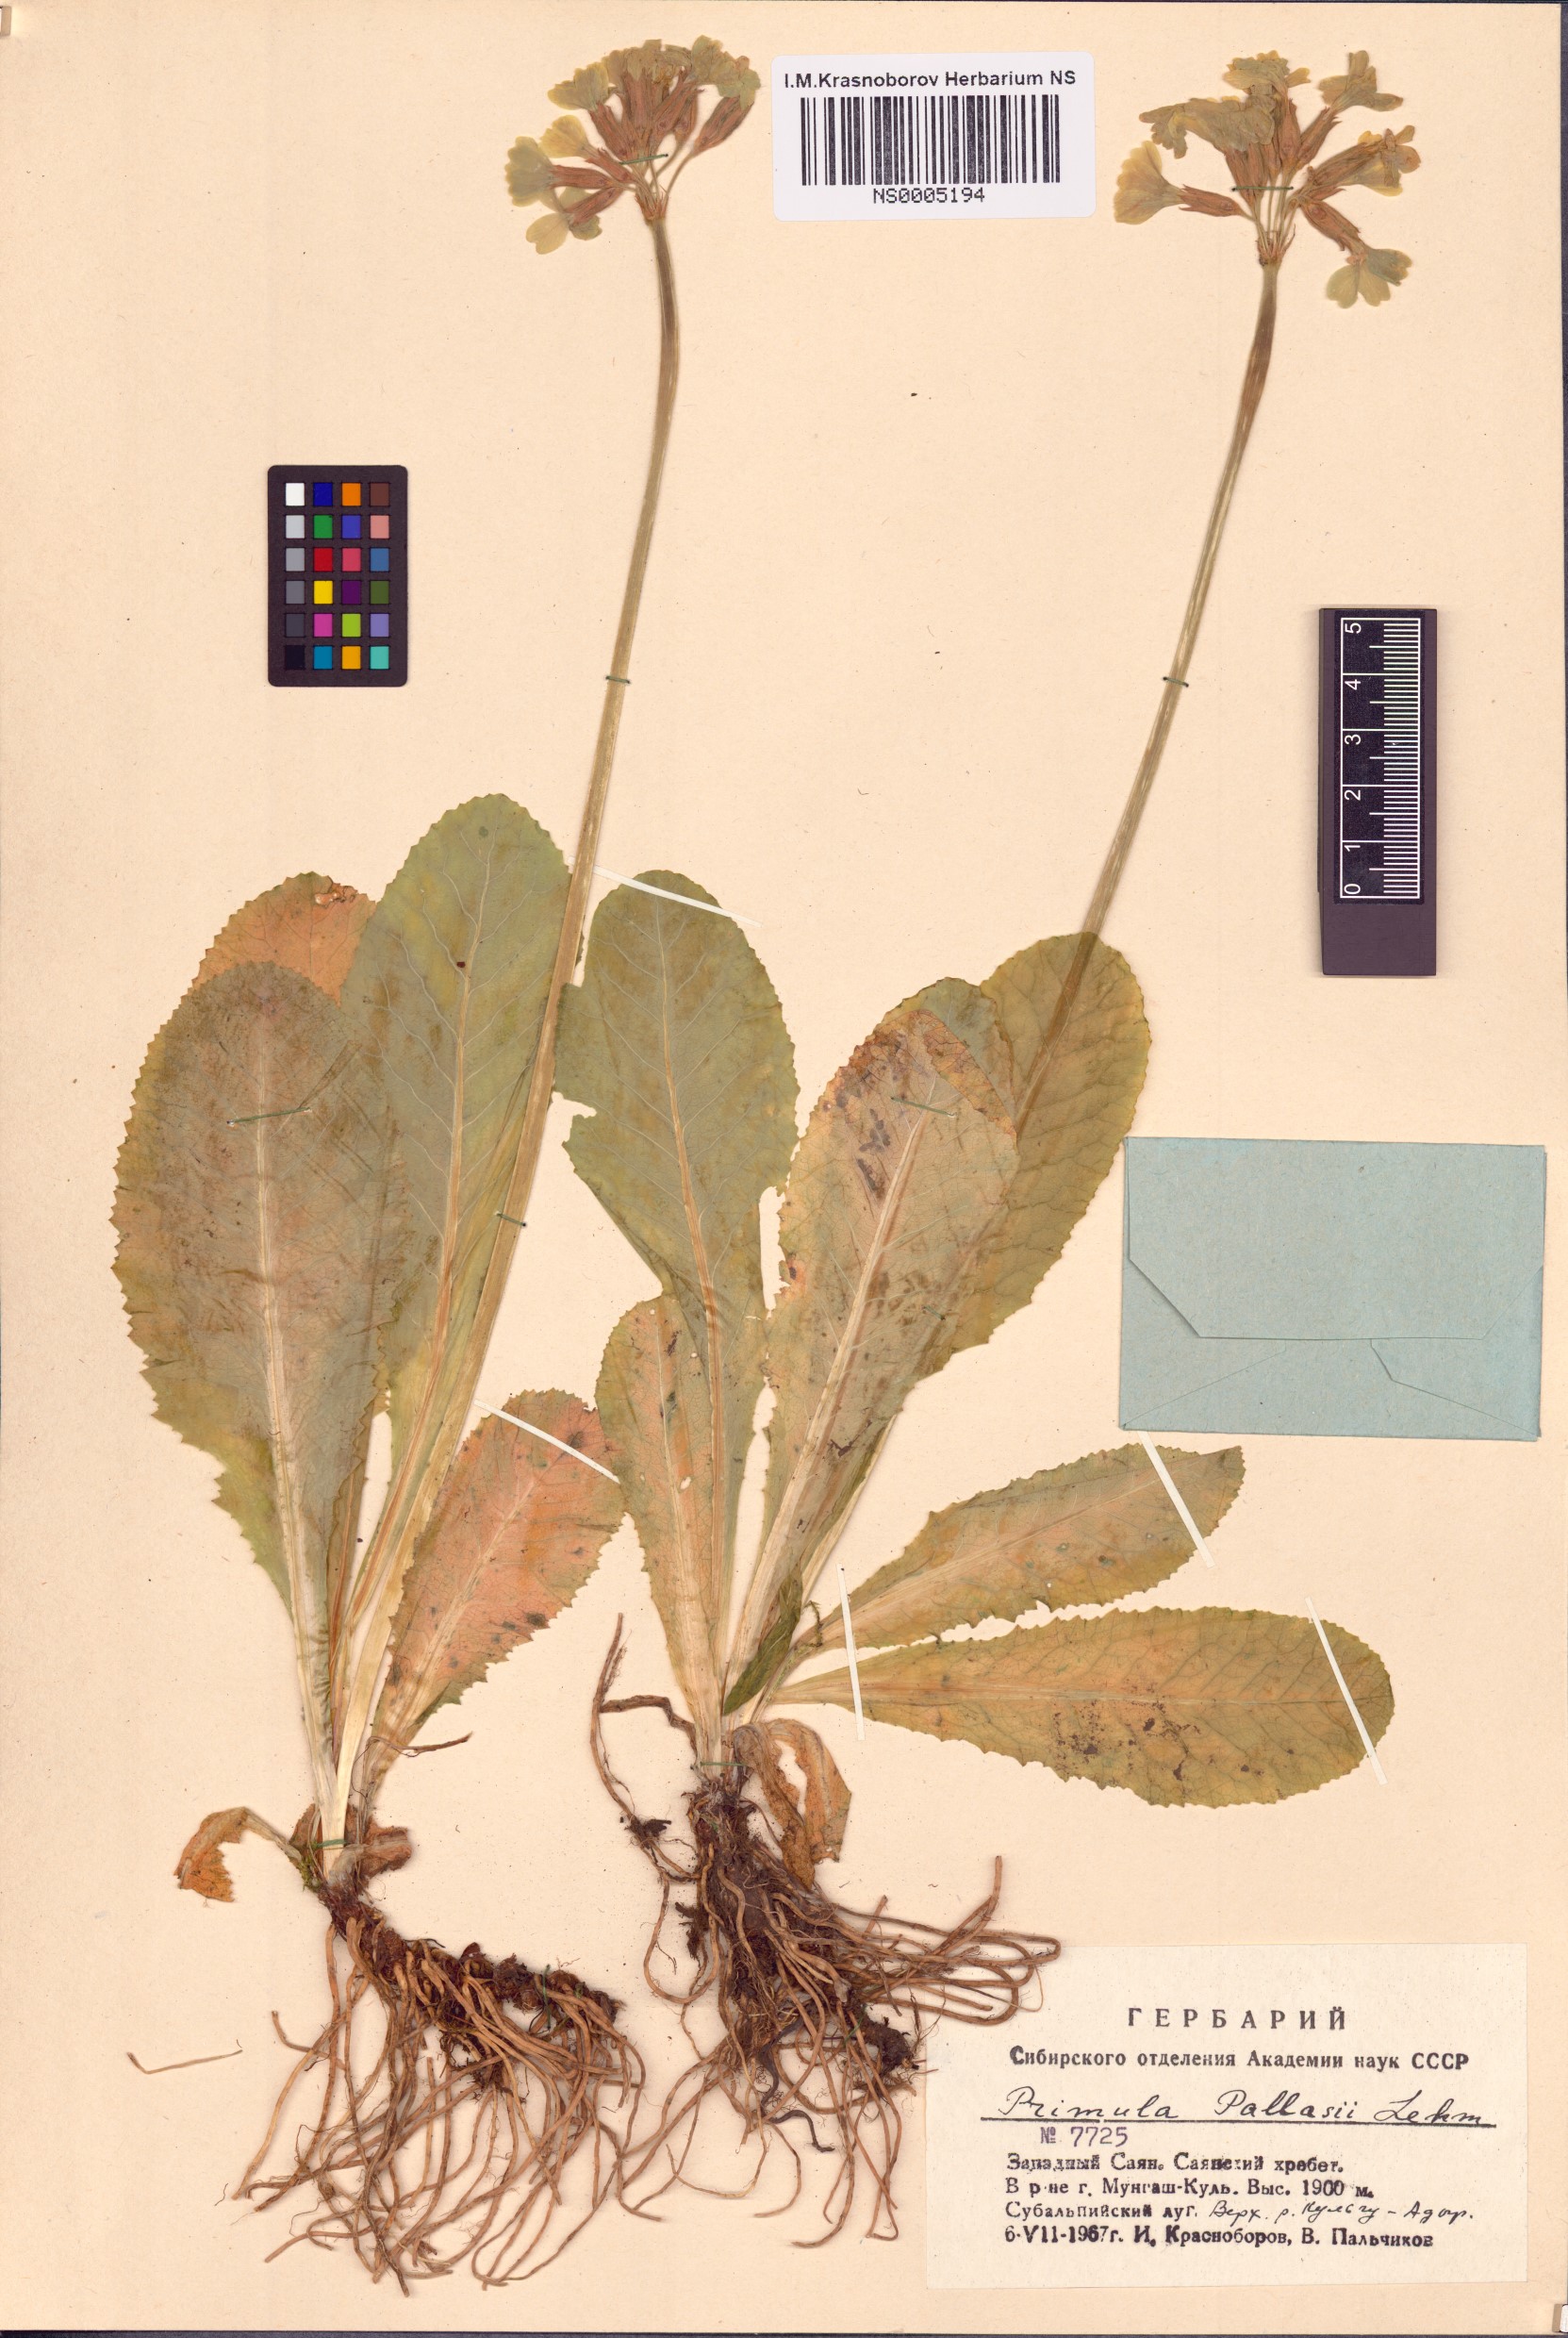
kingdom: Plantae
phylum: Tracheophyta
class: Magnoliopsida
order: Ericales
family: Primulaceae
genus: Primula
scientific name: Primula elatior
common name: Oxlip
